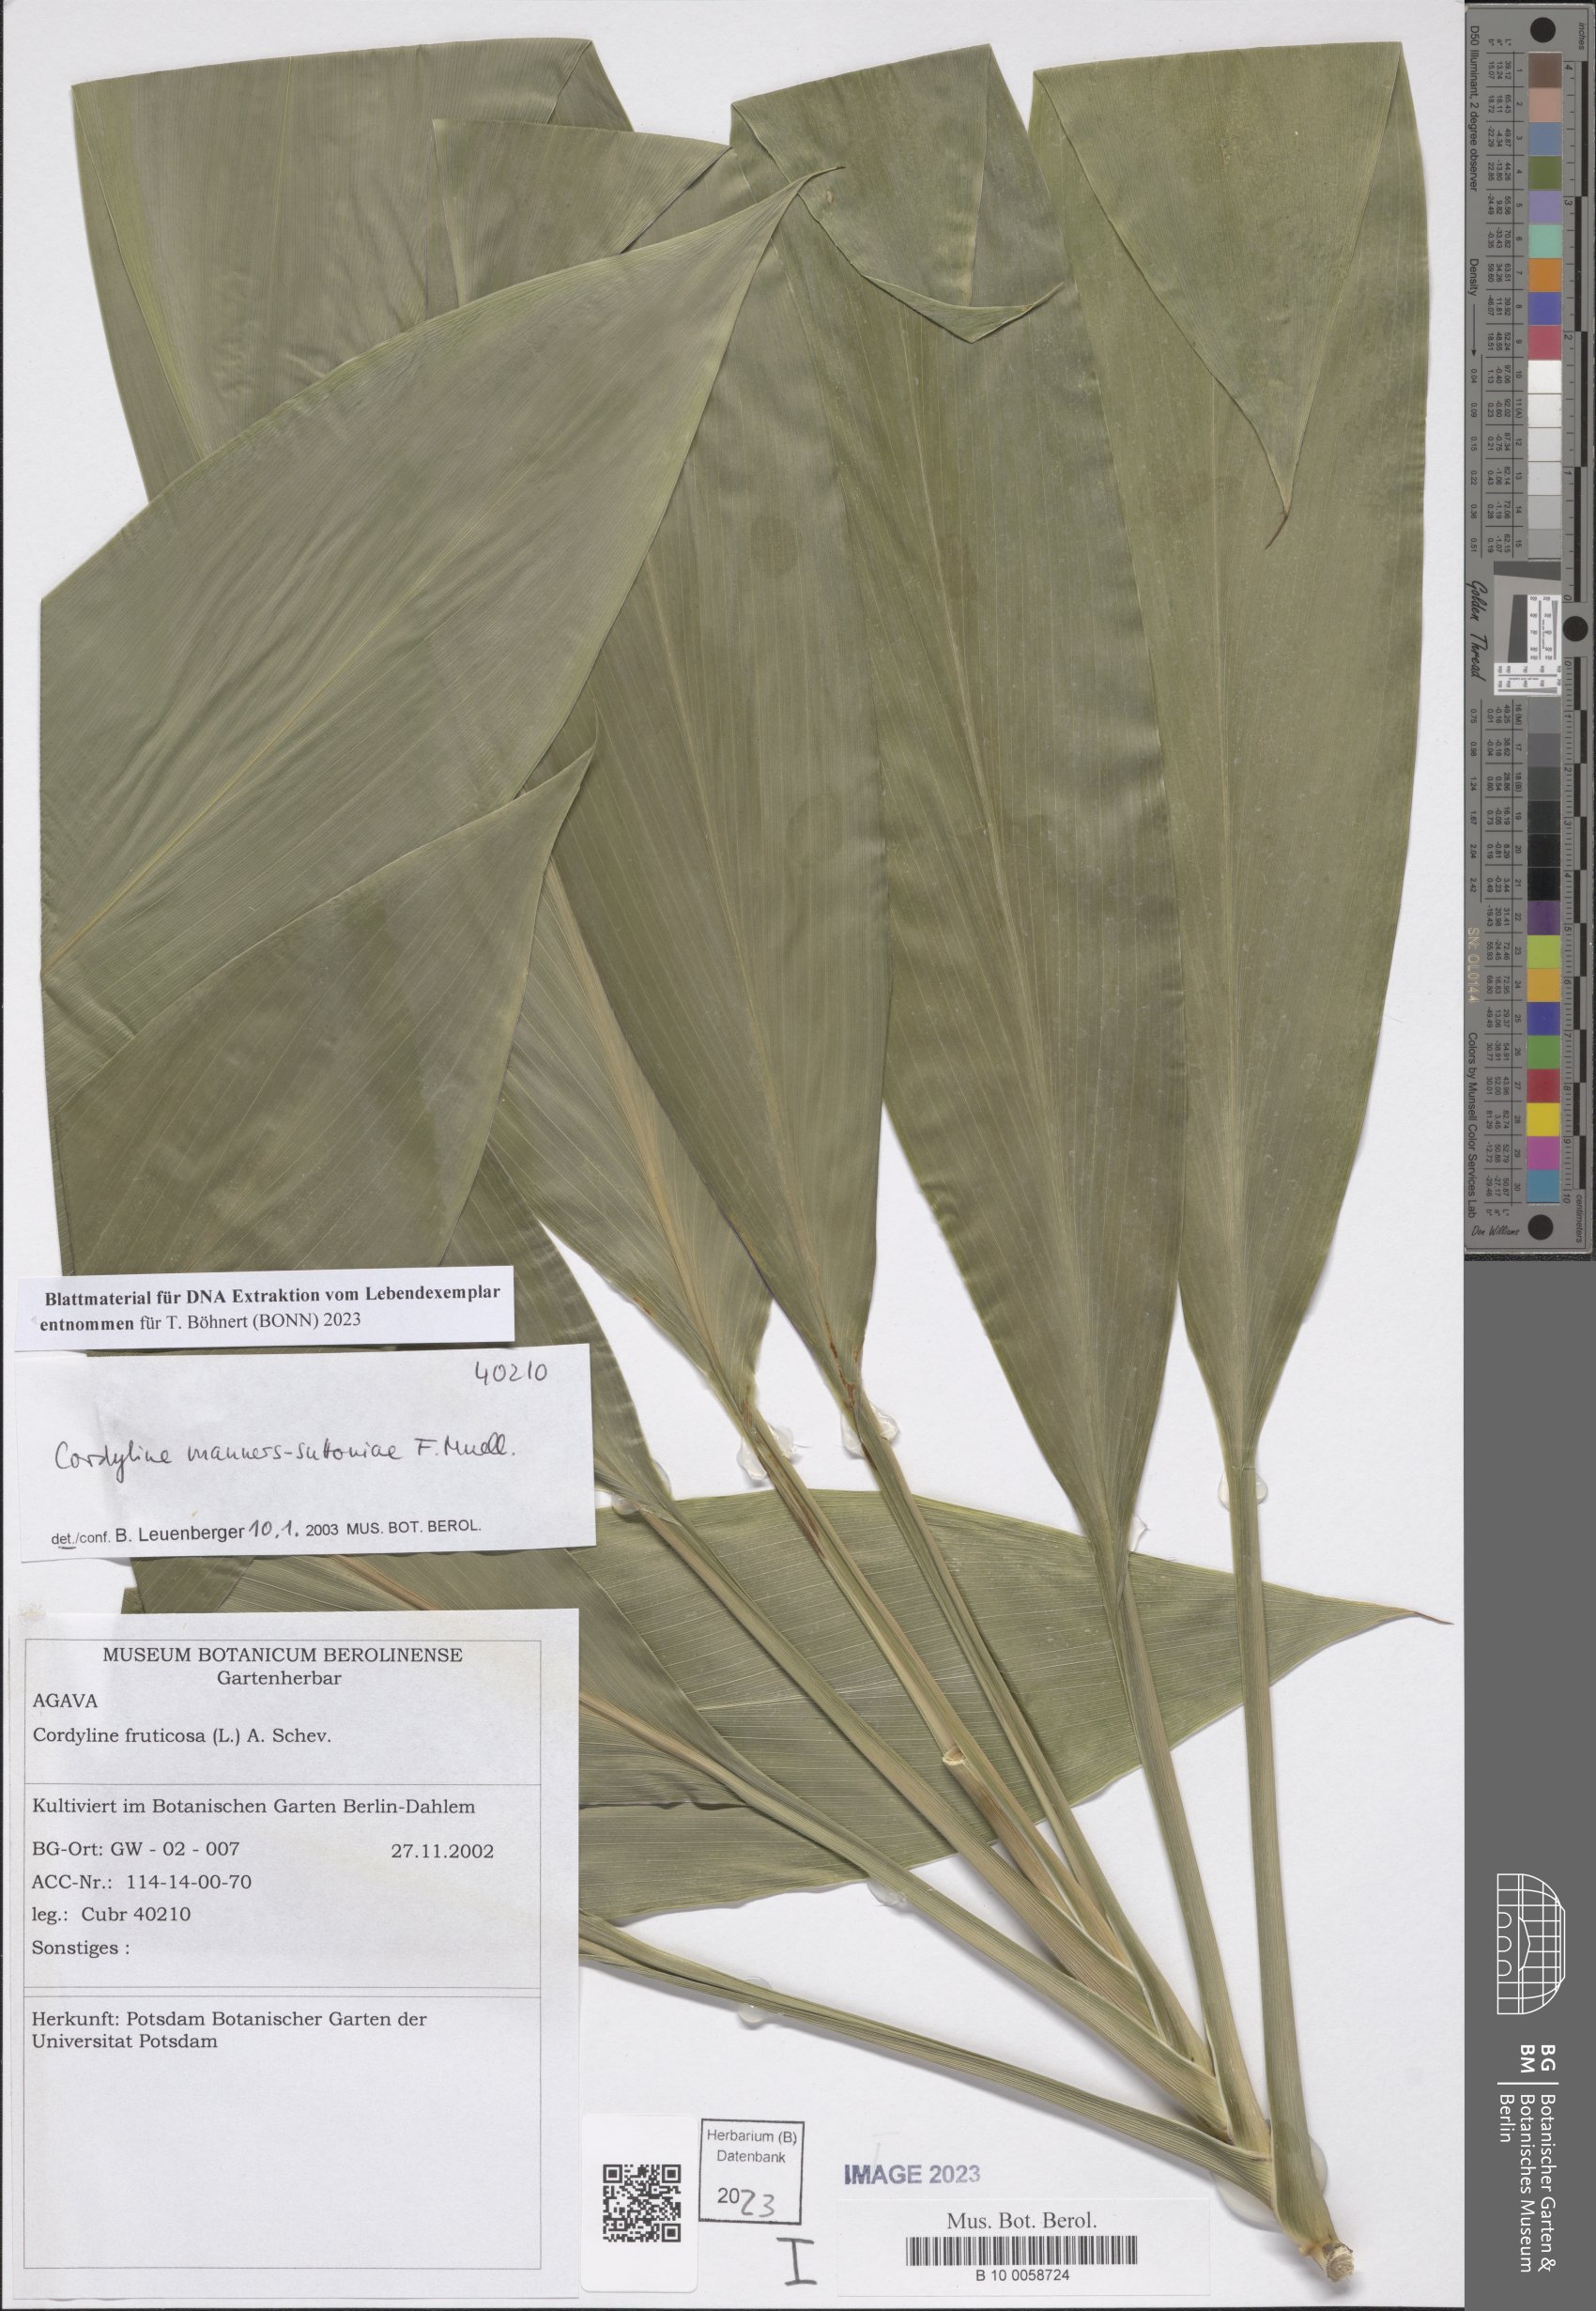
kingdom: Plantae
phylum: Tracheophyta
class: Liliopsida
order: Asparagales
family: Asparagaceae
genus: Cordyline
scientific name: Cordyline manners-suttoniae
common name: Giant palm-lily
